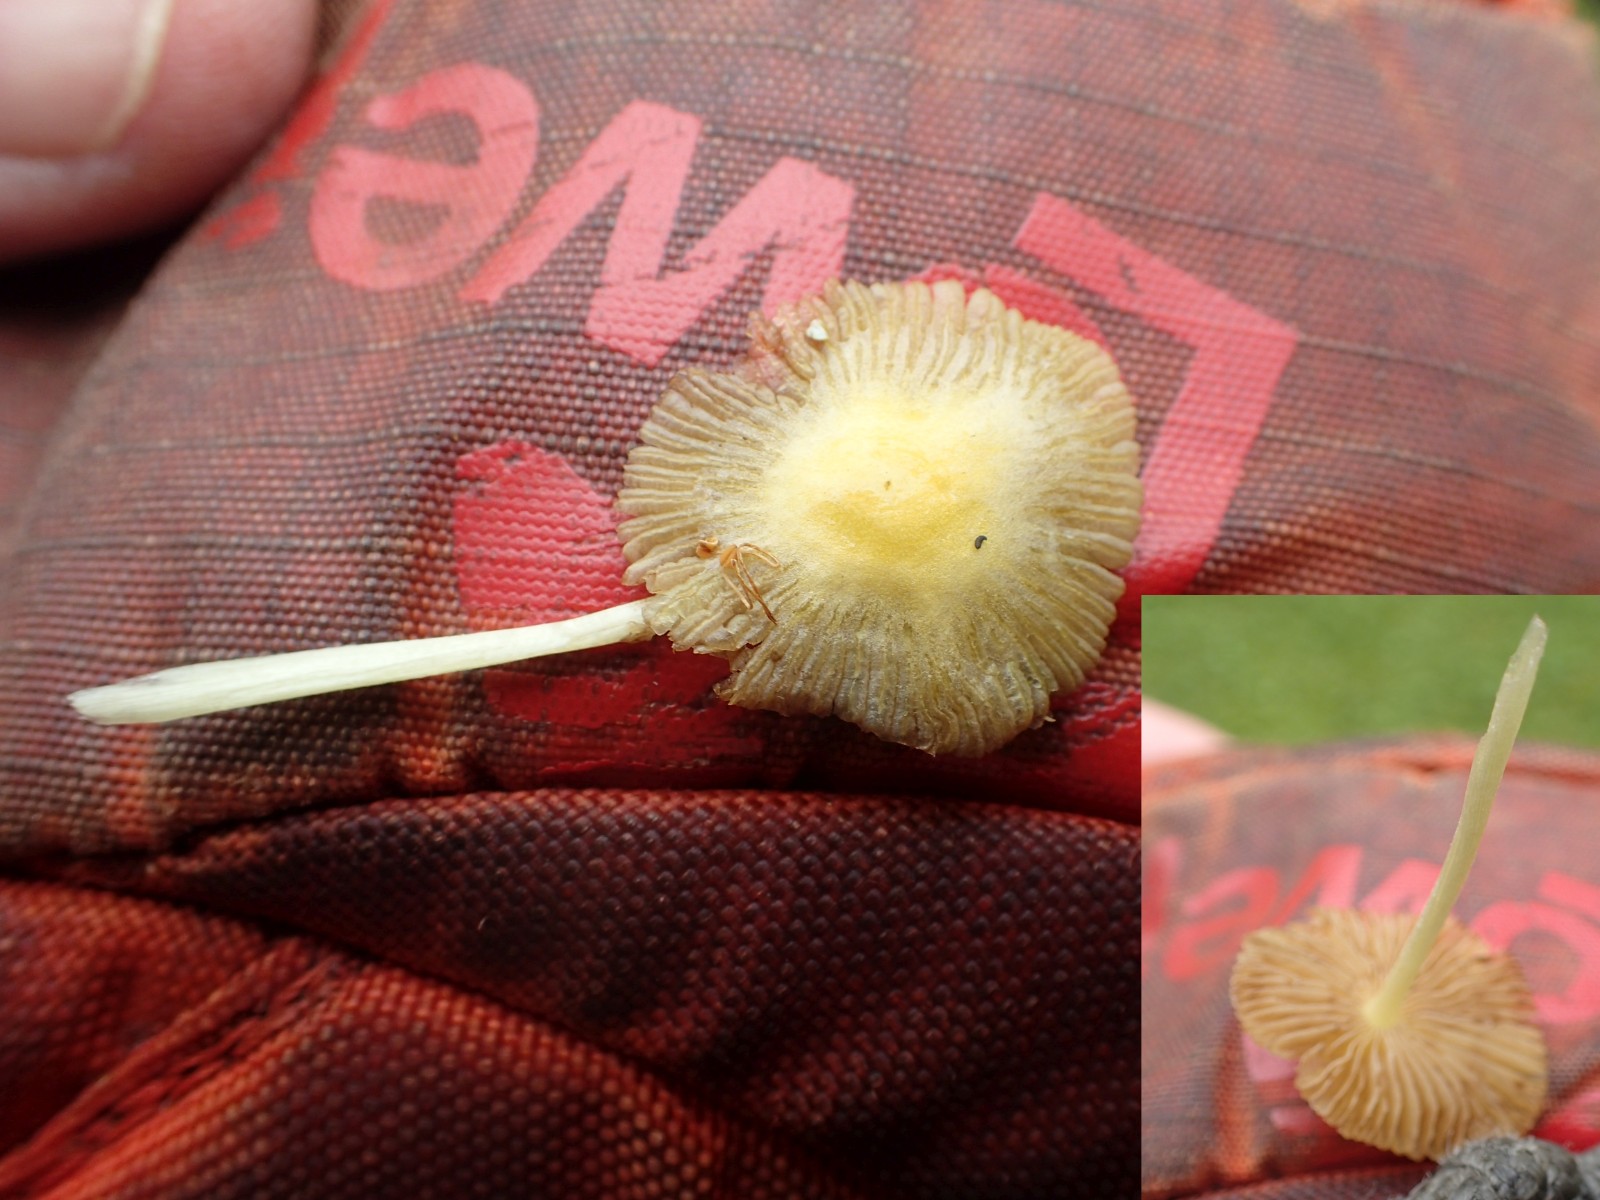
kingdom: Fungi
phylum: Basidiomycota
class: Agaricomycetes
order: Agaricales
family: Bolbitiaceae
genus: Bolbitius
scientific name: Bolbitius titubans
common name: almindelig gulhat
